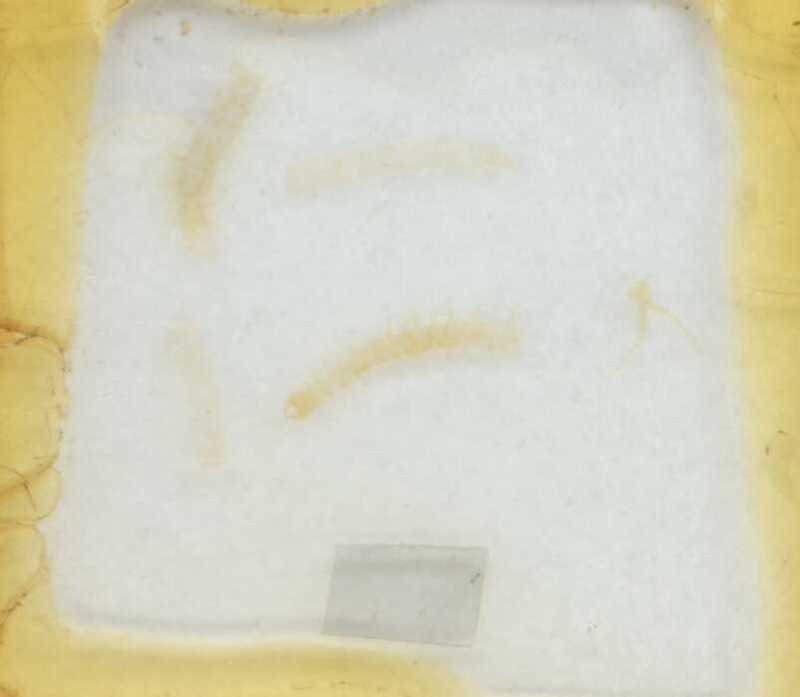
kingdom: Animalia
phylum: Arthropoda
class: Chilopoda
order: Geophilomorpha
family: Geophilidae
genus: Geophilus
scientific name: Geophilus oligopus
